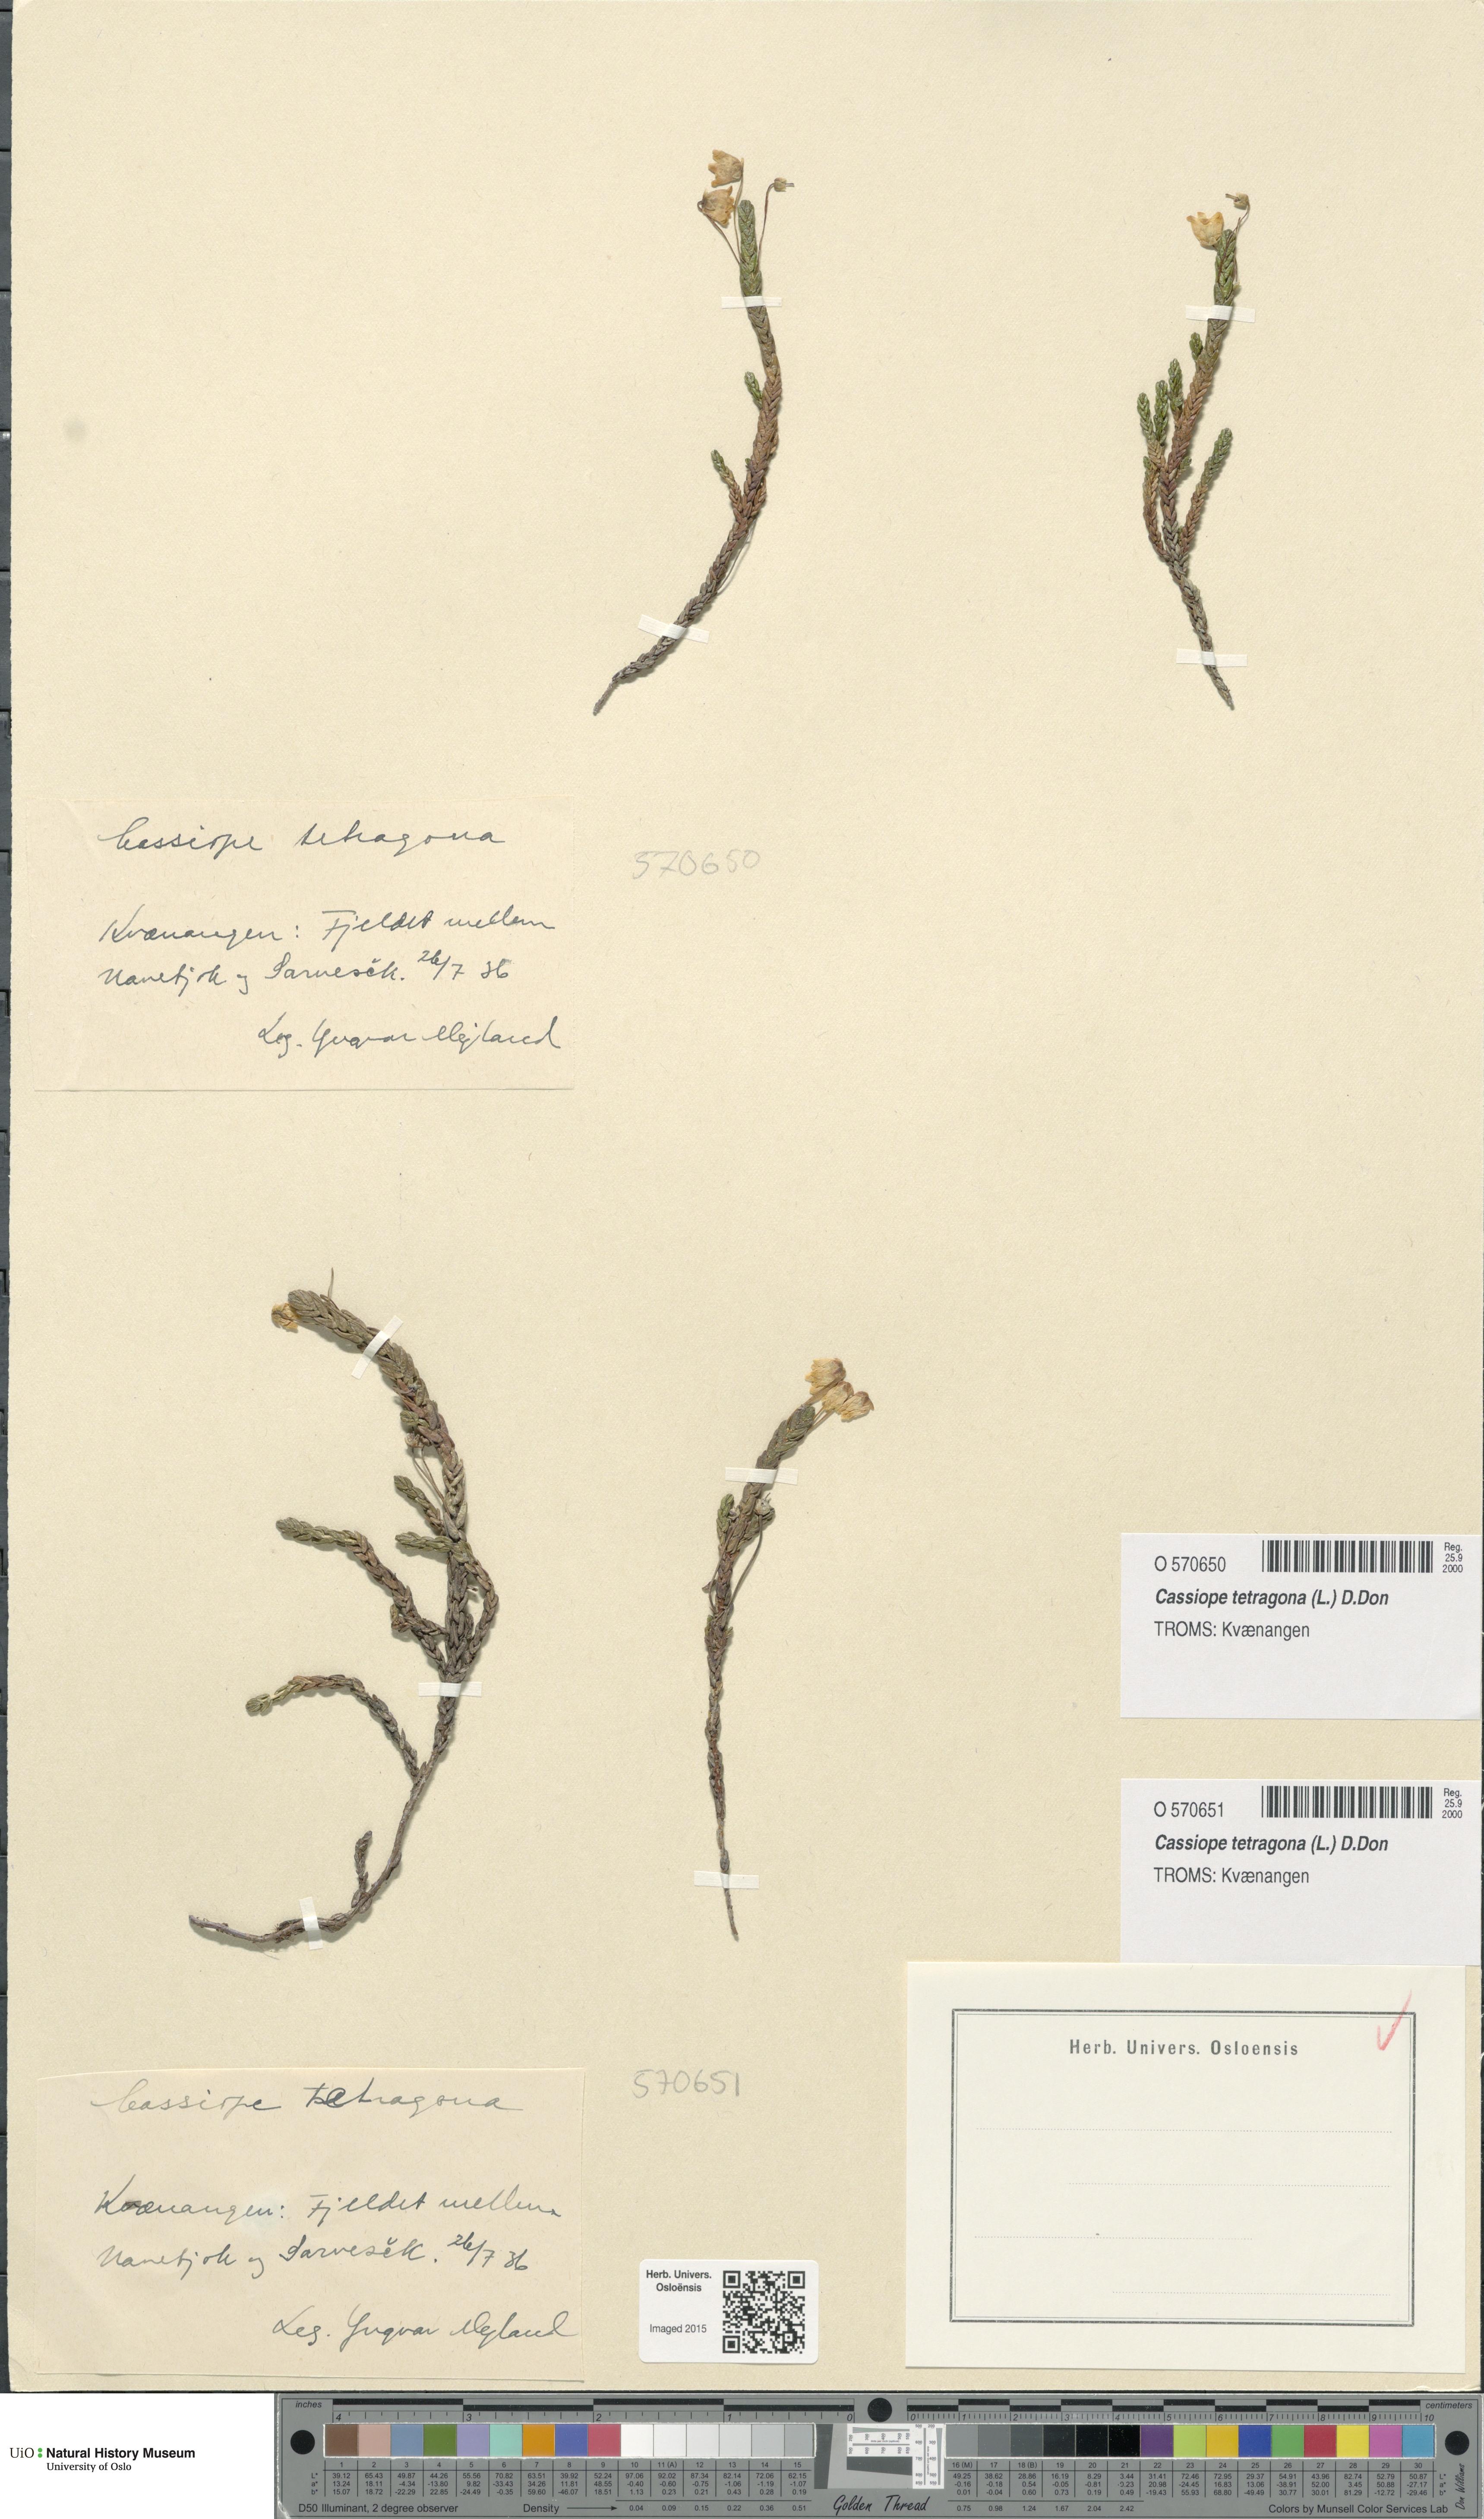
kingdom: Plantae
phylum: Tracheophyta
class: Magnoliopsida
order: Ericales
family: Ericaceae
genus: Cassiope
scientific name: Cassiope tetragona
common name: Arctic bell heather
